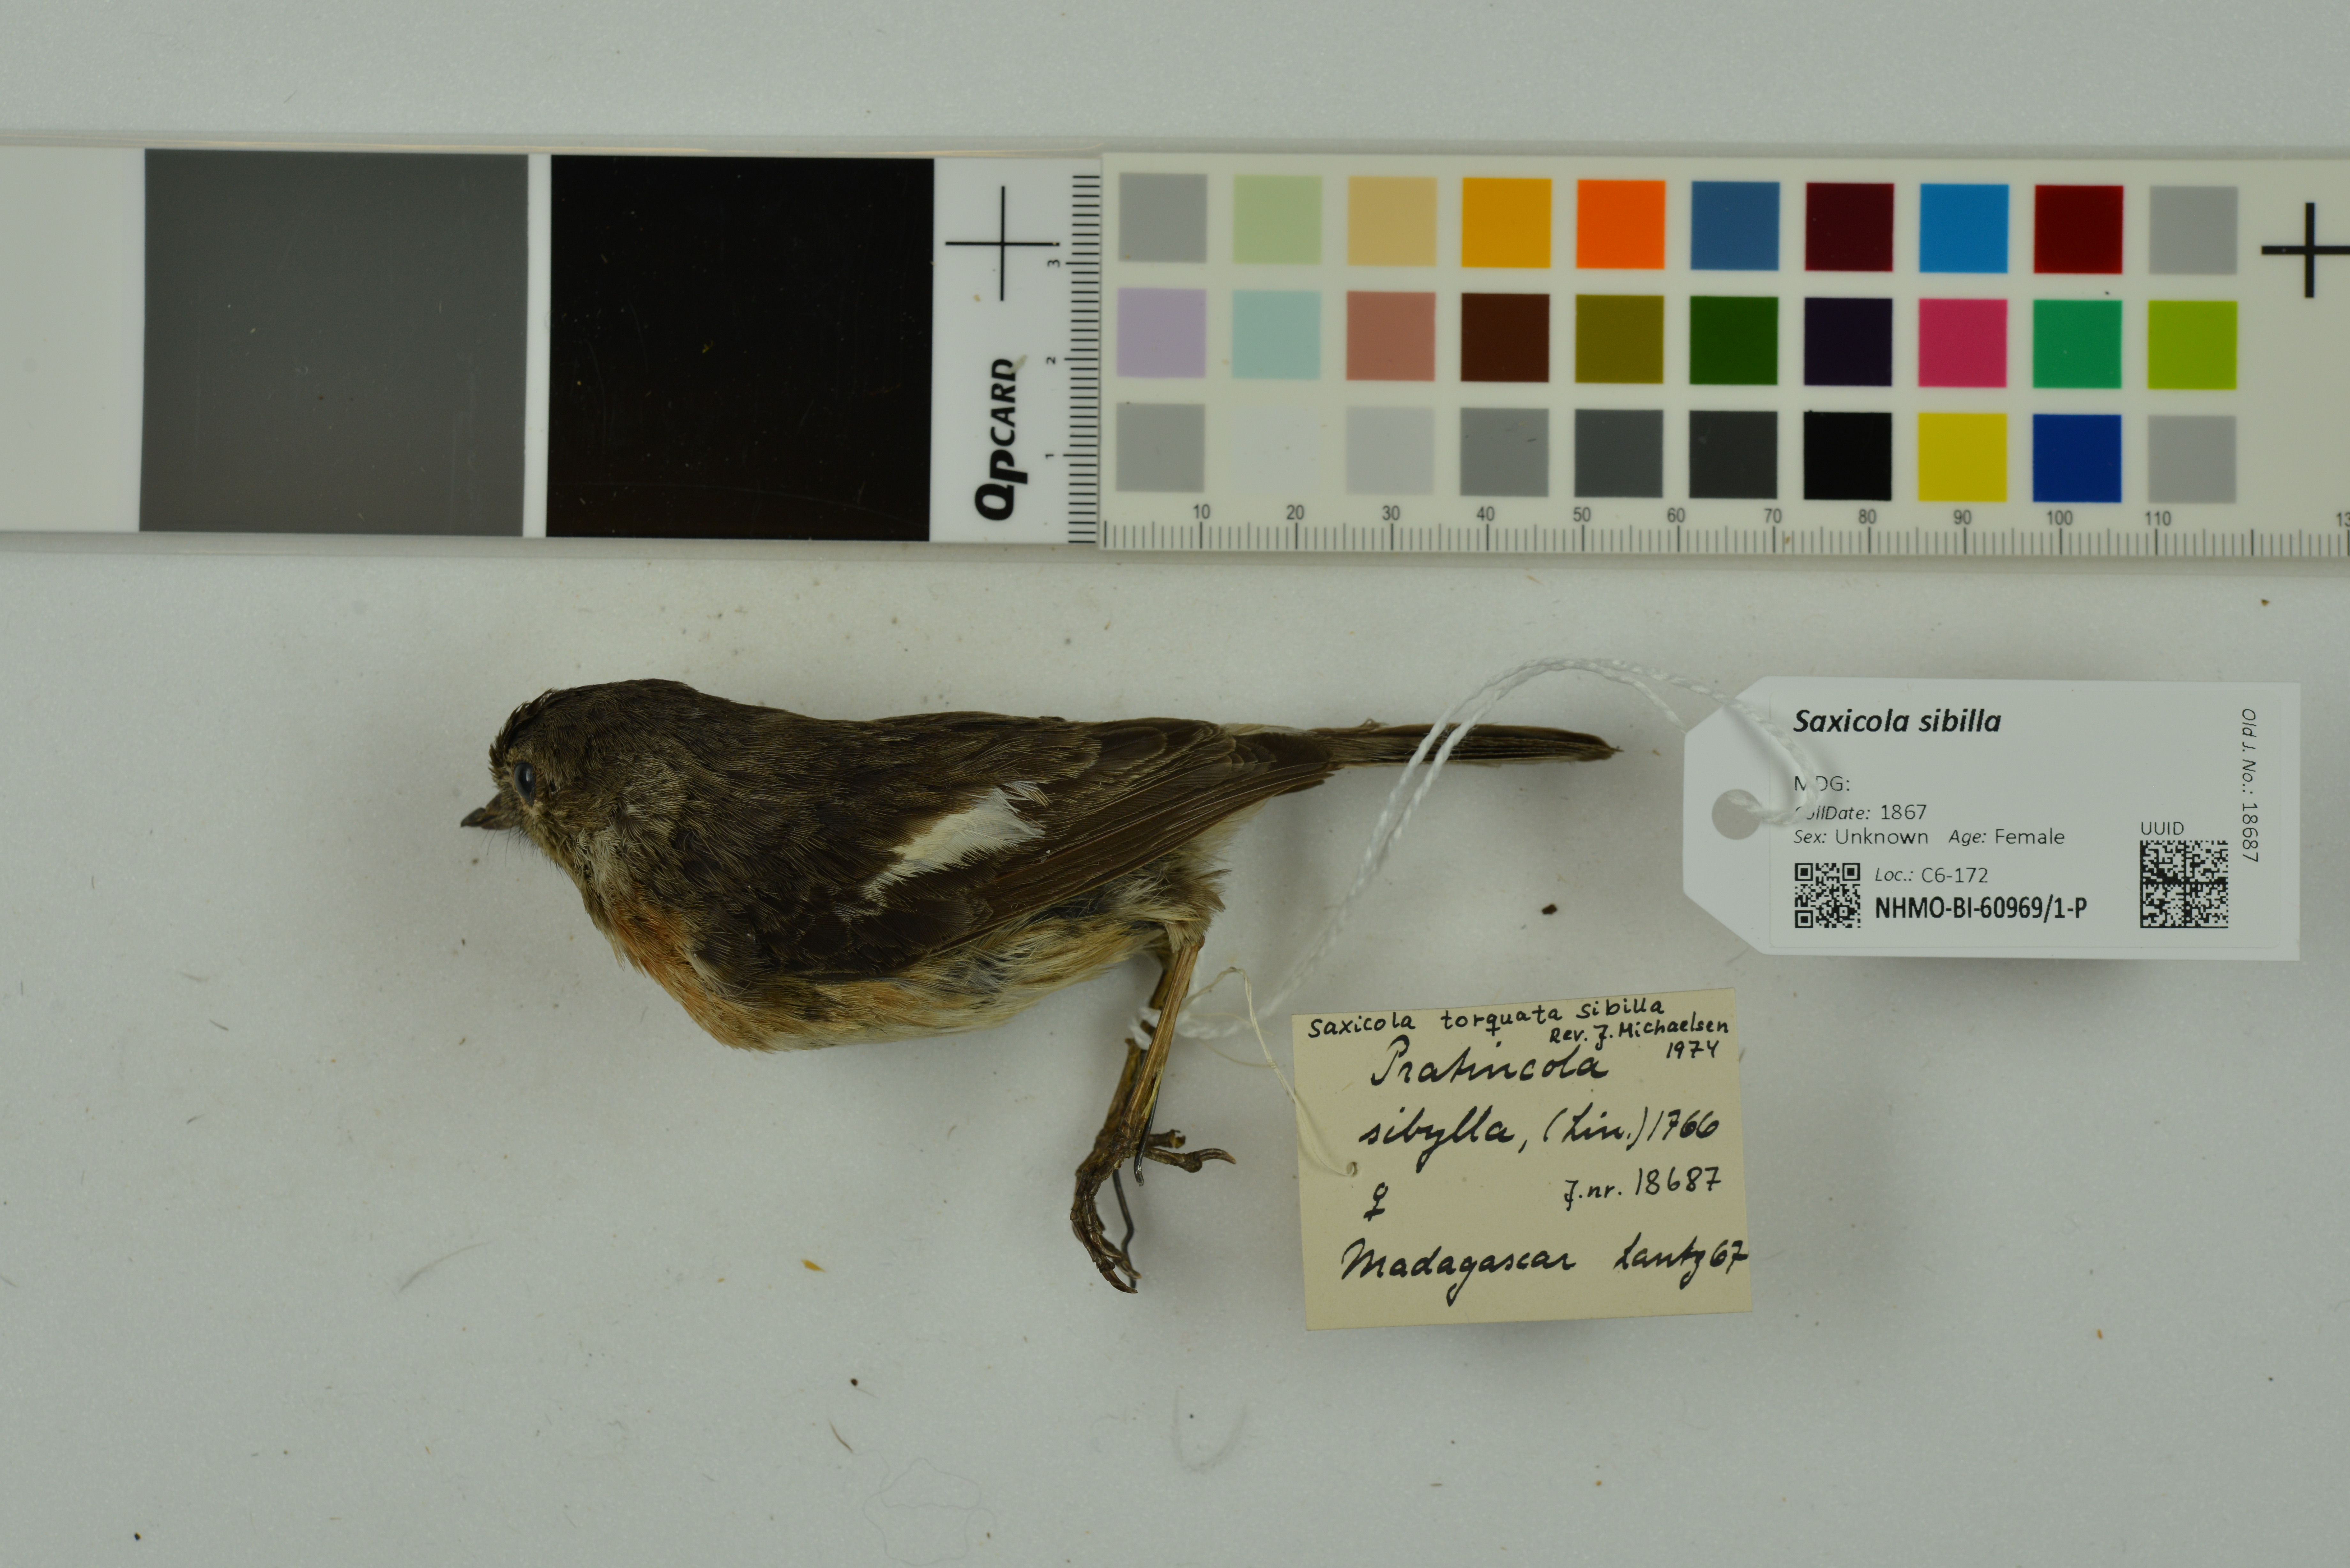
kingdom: Animalia
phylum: Chordata
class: Aves
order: Passeriformes
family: Muscicapidae
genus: Saxicola
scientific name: Saxicola sibilla
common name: Madagascan stonechat
